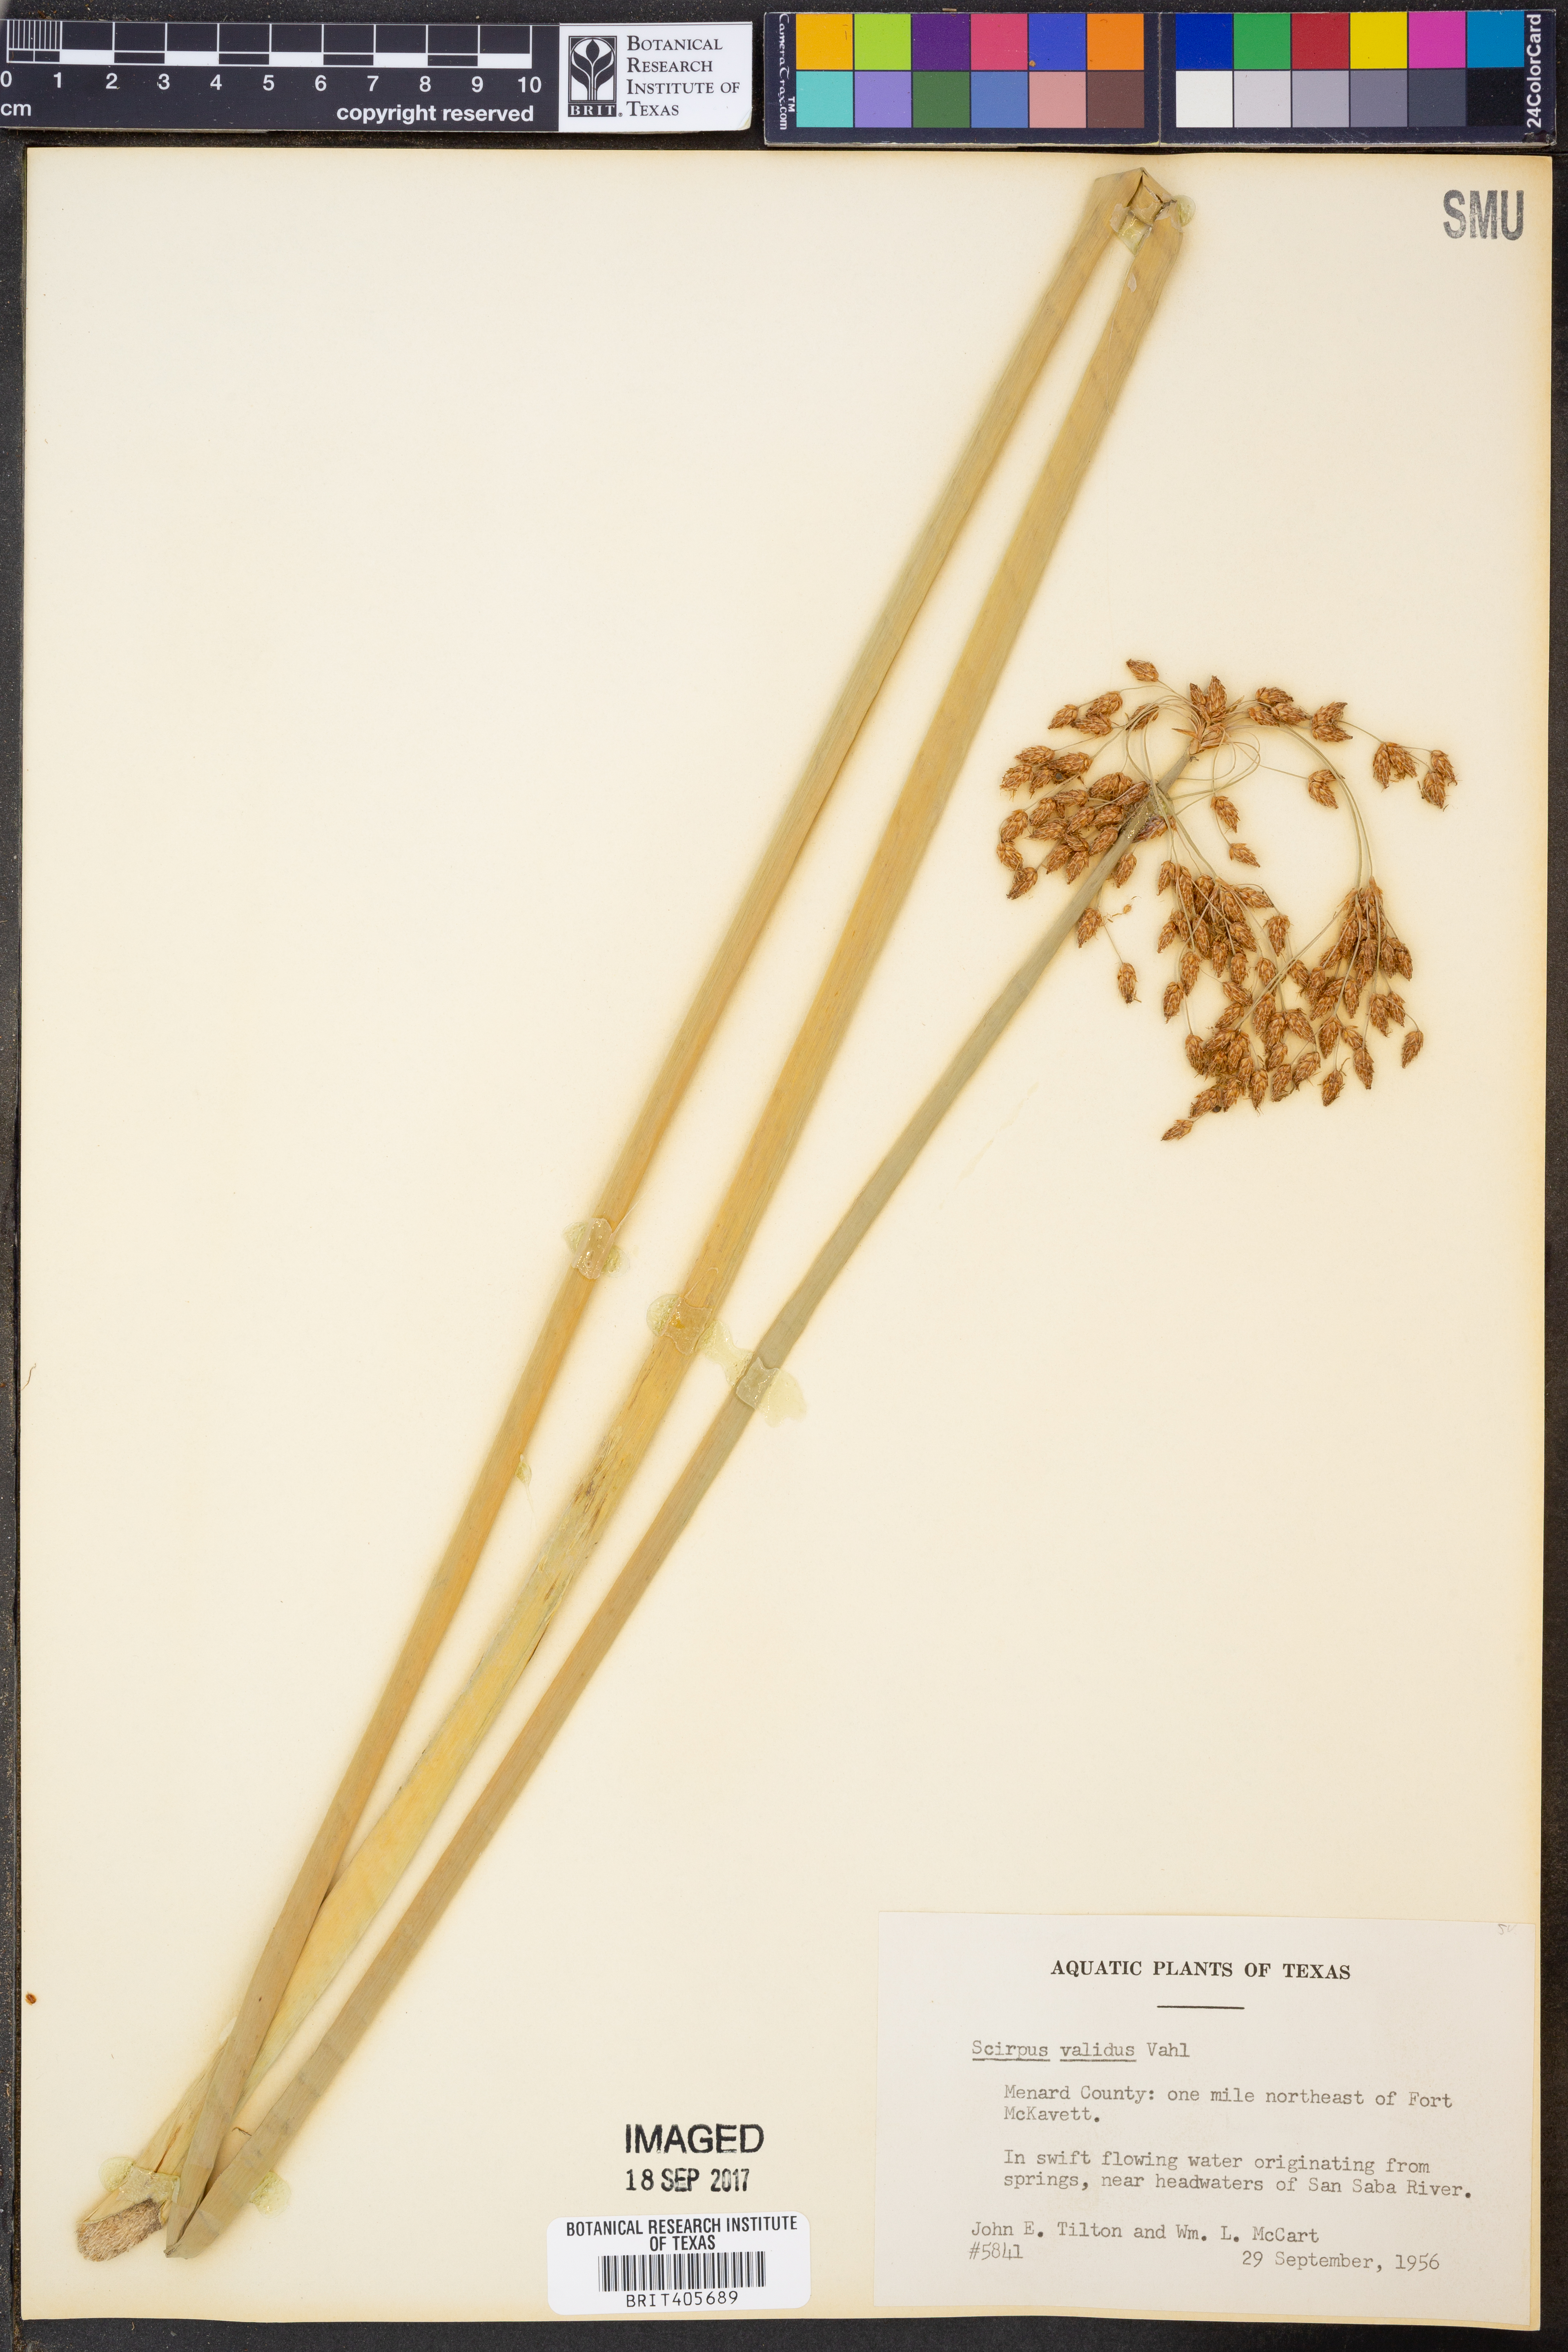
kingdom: Plantae
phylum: Tracheophyta
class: Liliopsida
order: Poales
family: Cyperaceae
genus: Schoenoplectus
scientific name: Schoenoplectus tabernaemontani
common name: Grey club-rush
